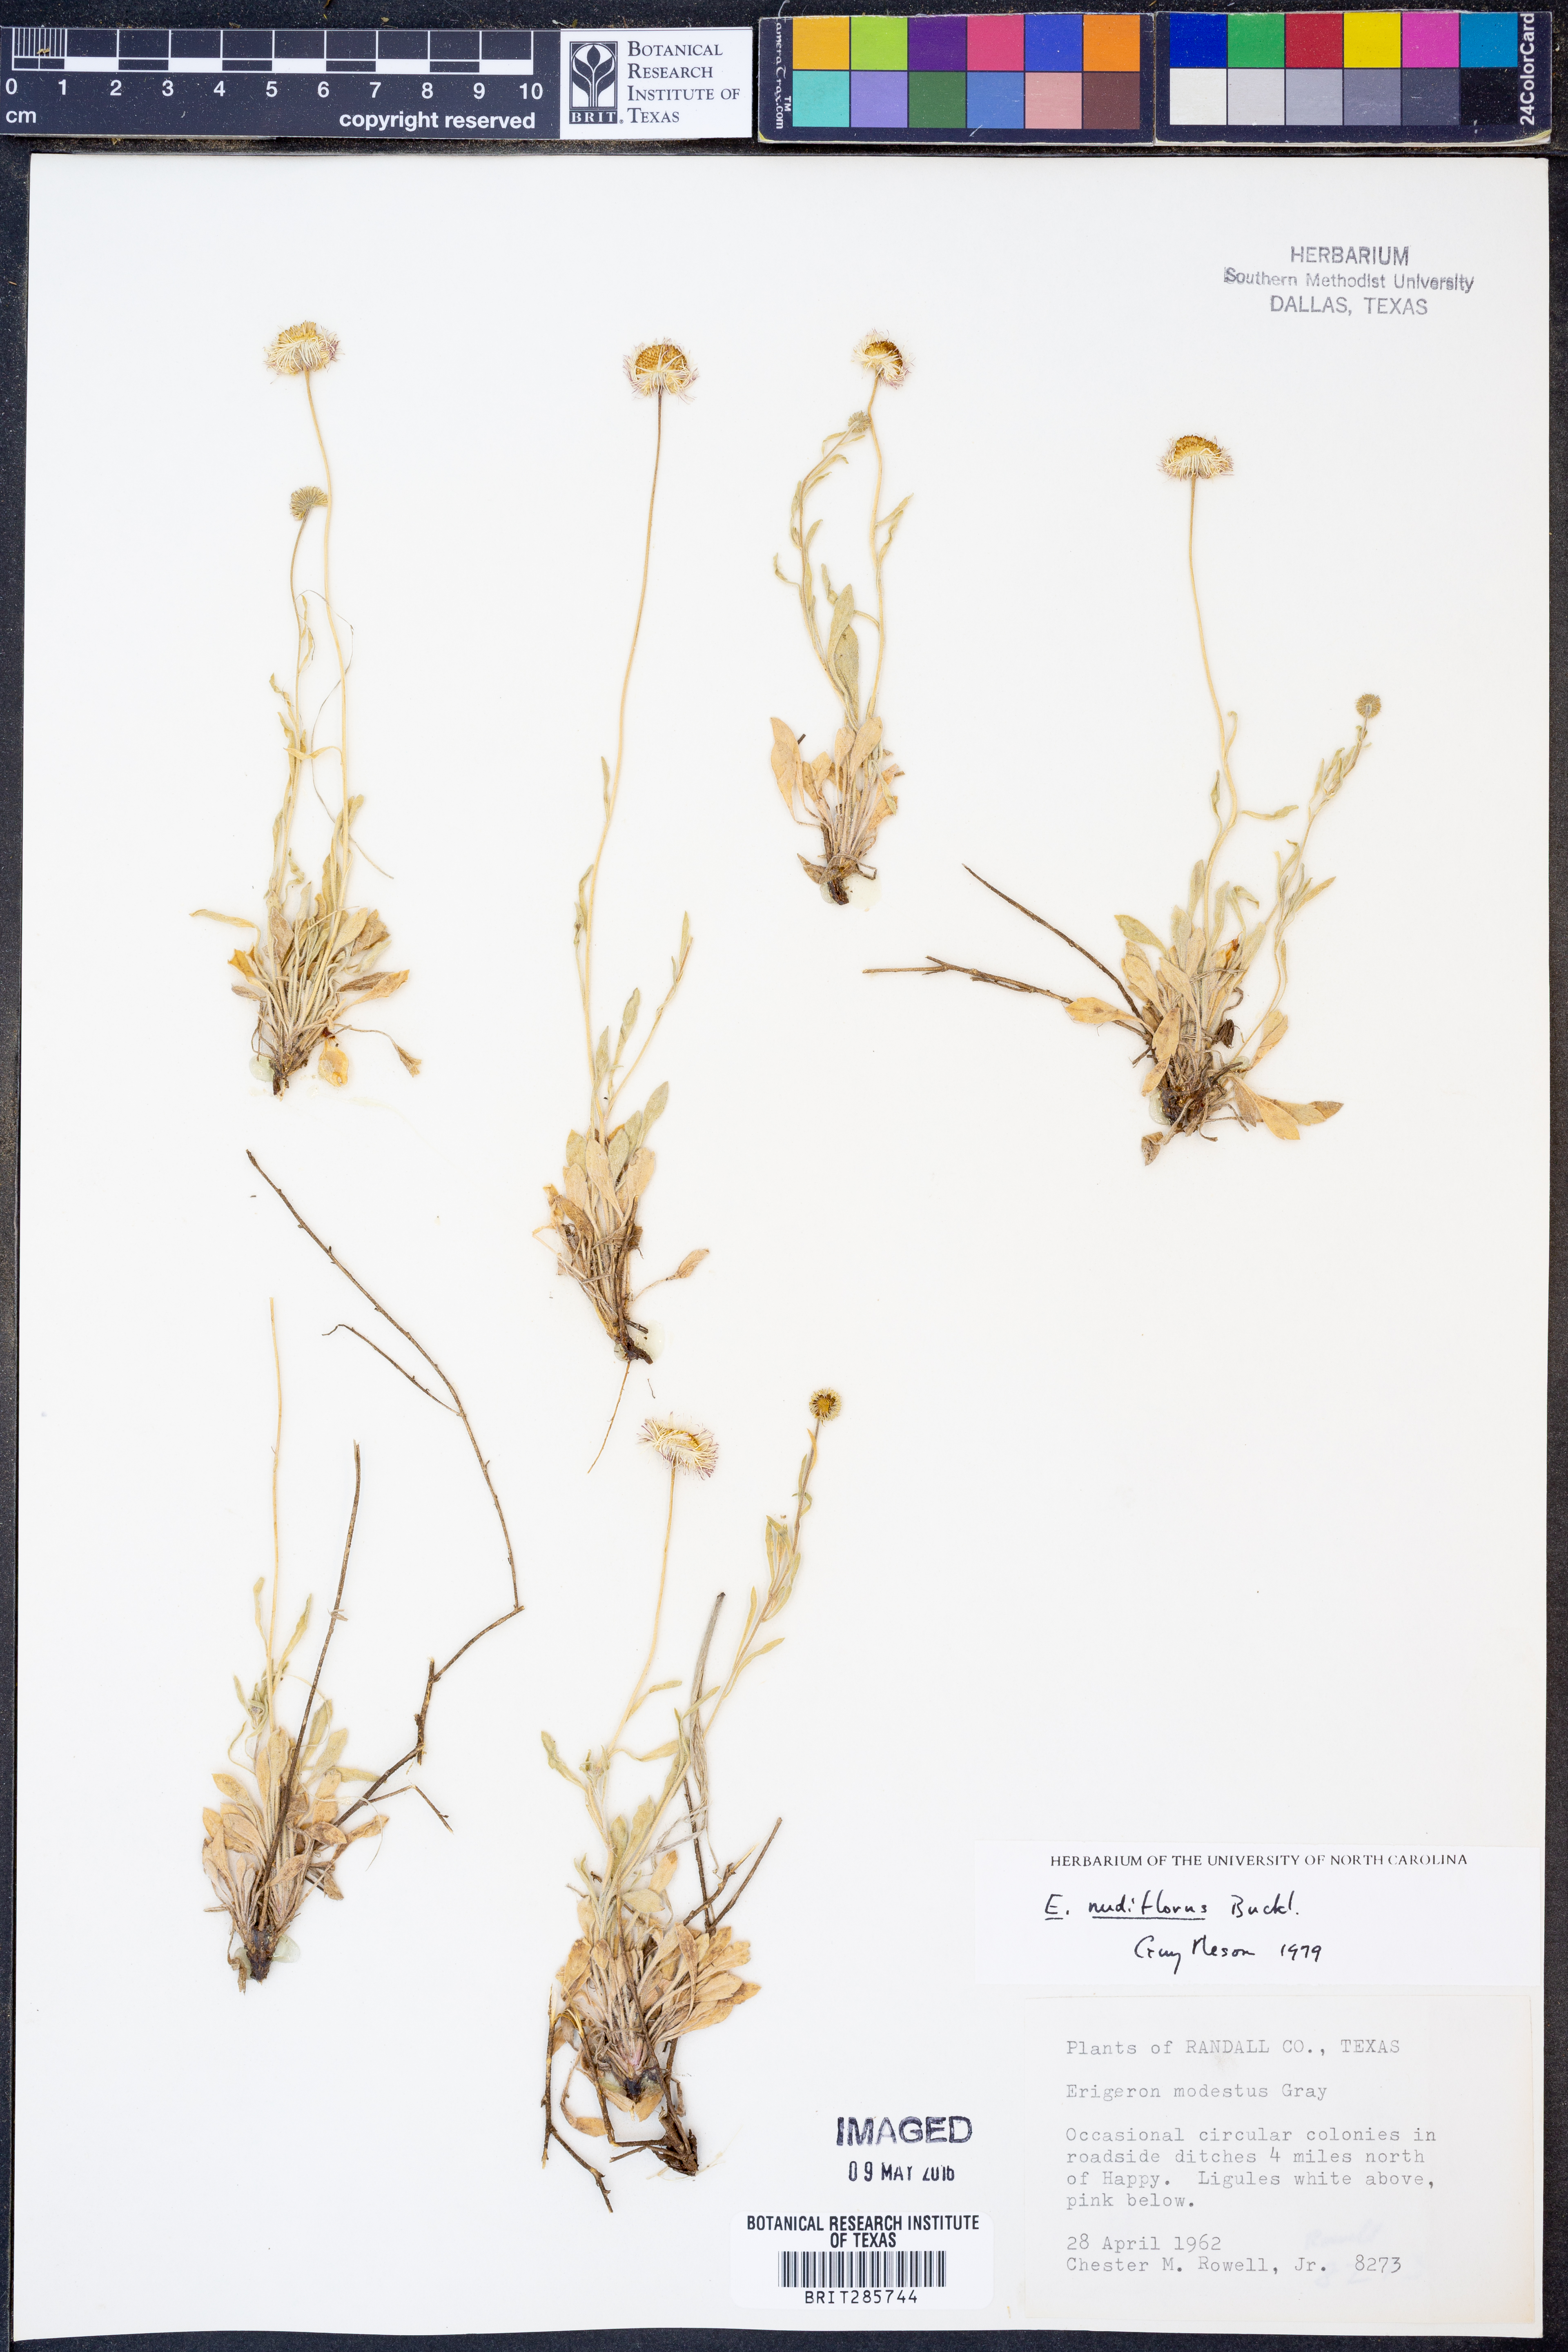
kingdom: Plantae
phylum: Tracheophyta
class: Magnoliopsida
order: Asterales
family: Asteraceae
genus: Erigeron
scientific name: Erigeron flagellaris
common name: Running fleabane
